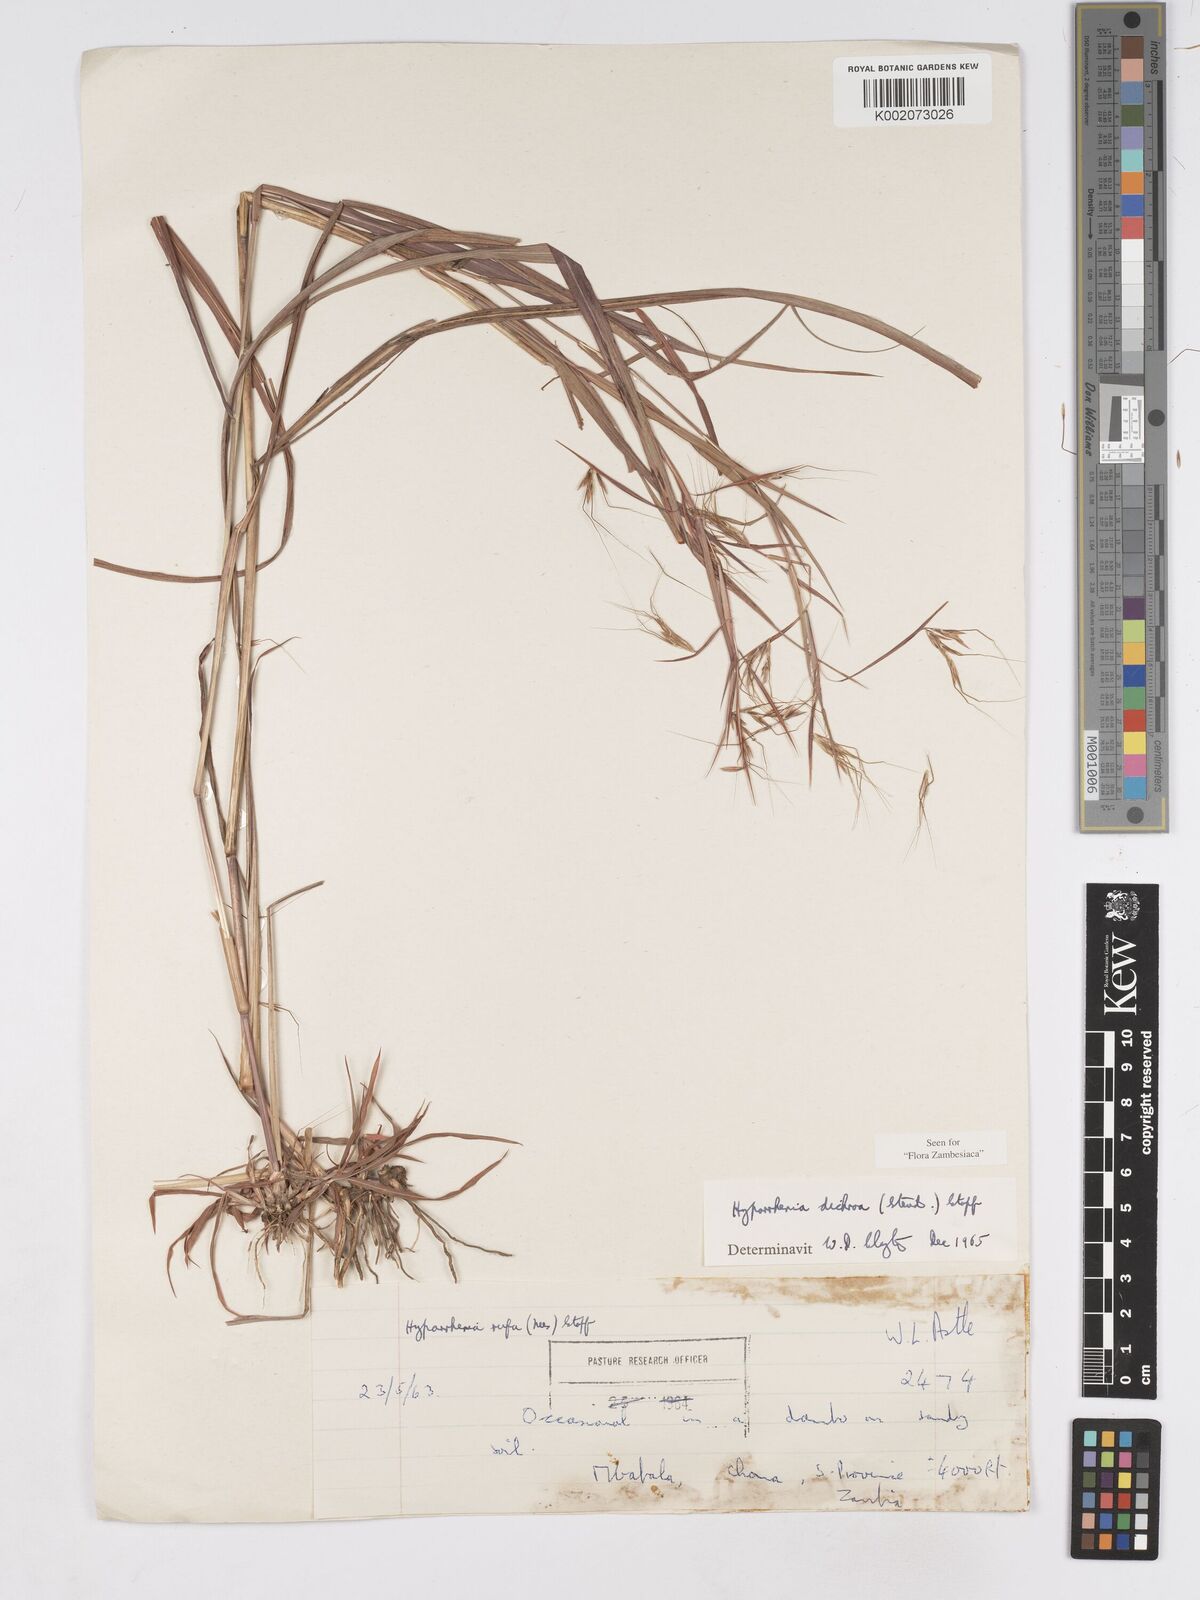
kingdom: Plantae
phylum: Tracheophyta
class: Liliopsida
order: Poales
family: Poaceae
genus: Hyparrhenia
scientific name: Hyparrhenia dichroa
